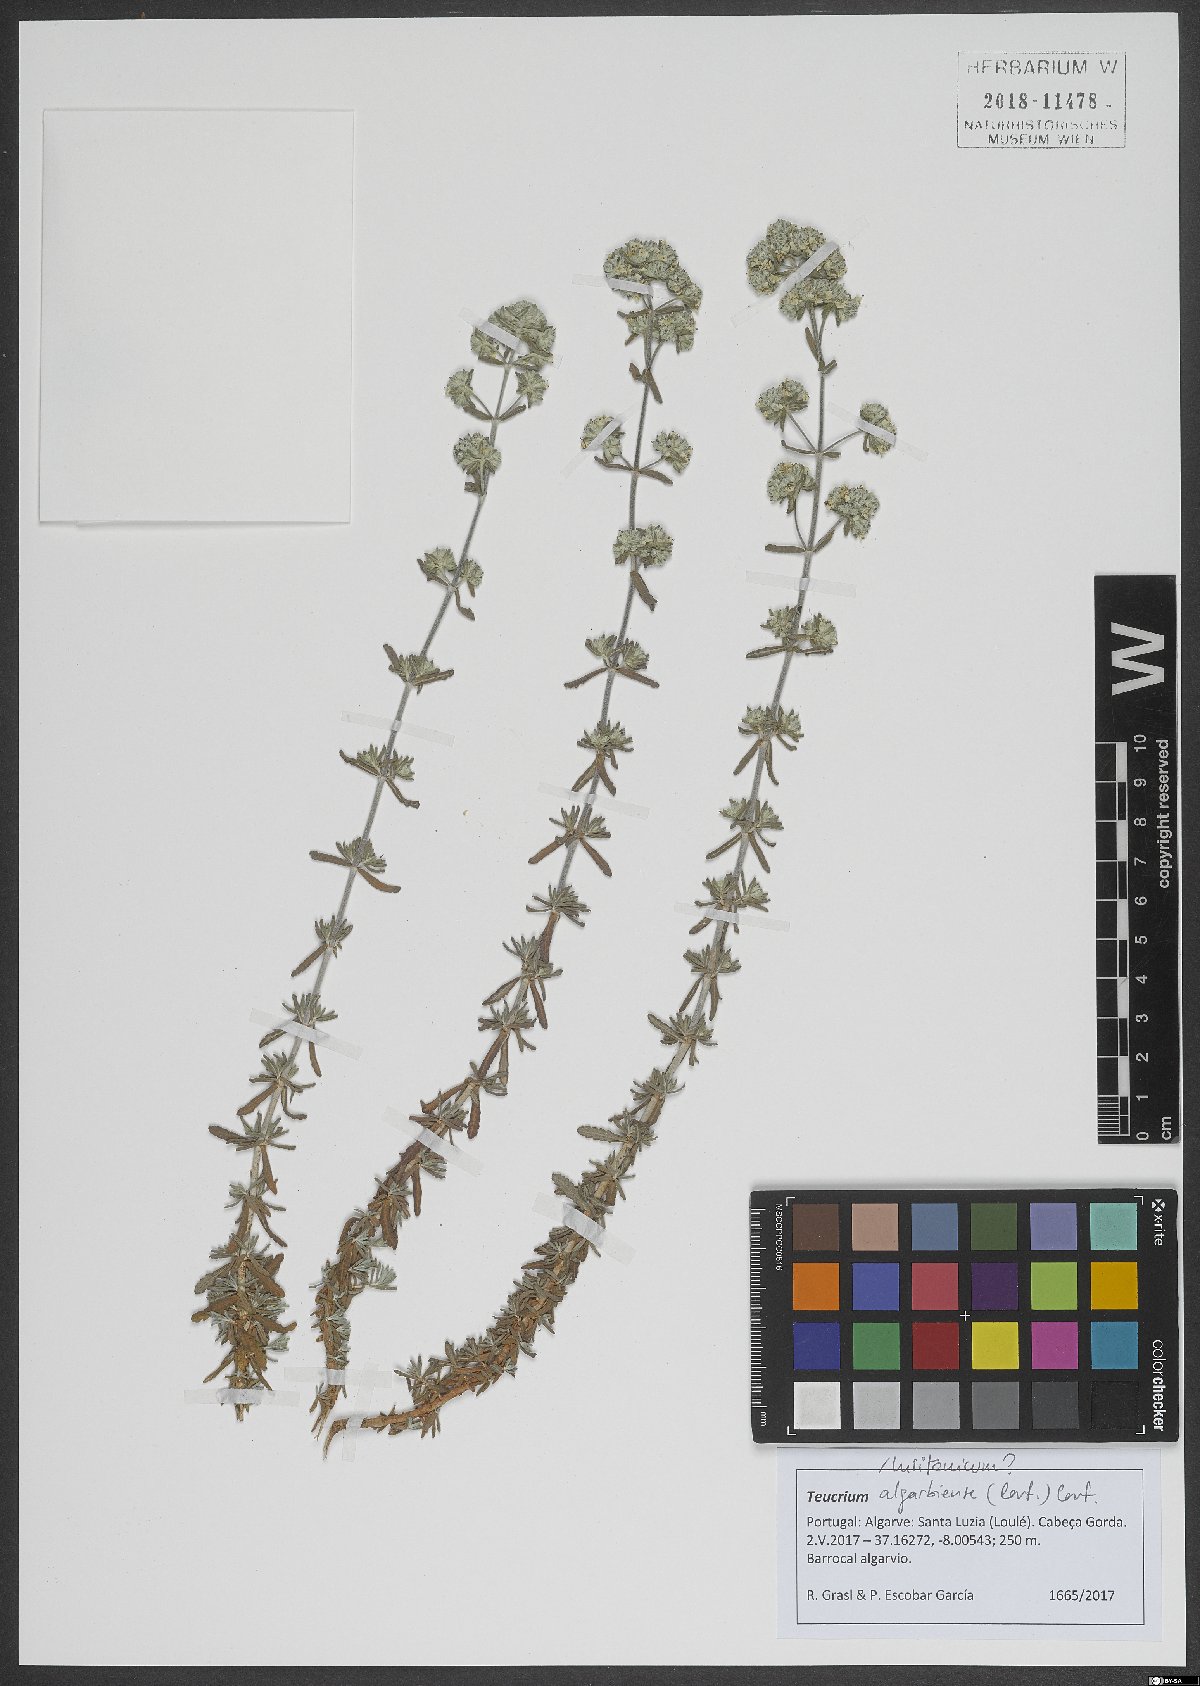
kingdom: Plantae
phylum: Tracheophyta
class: Magnoliopsida
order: Lamiales
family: Lamiaceae
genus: Teucrium
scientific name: Teucrium algarbiense
